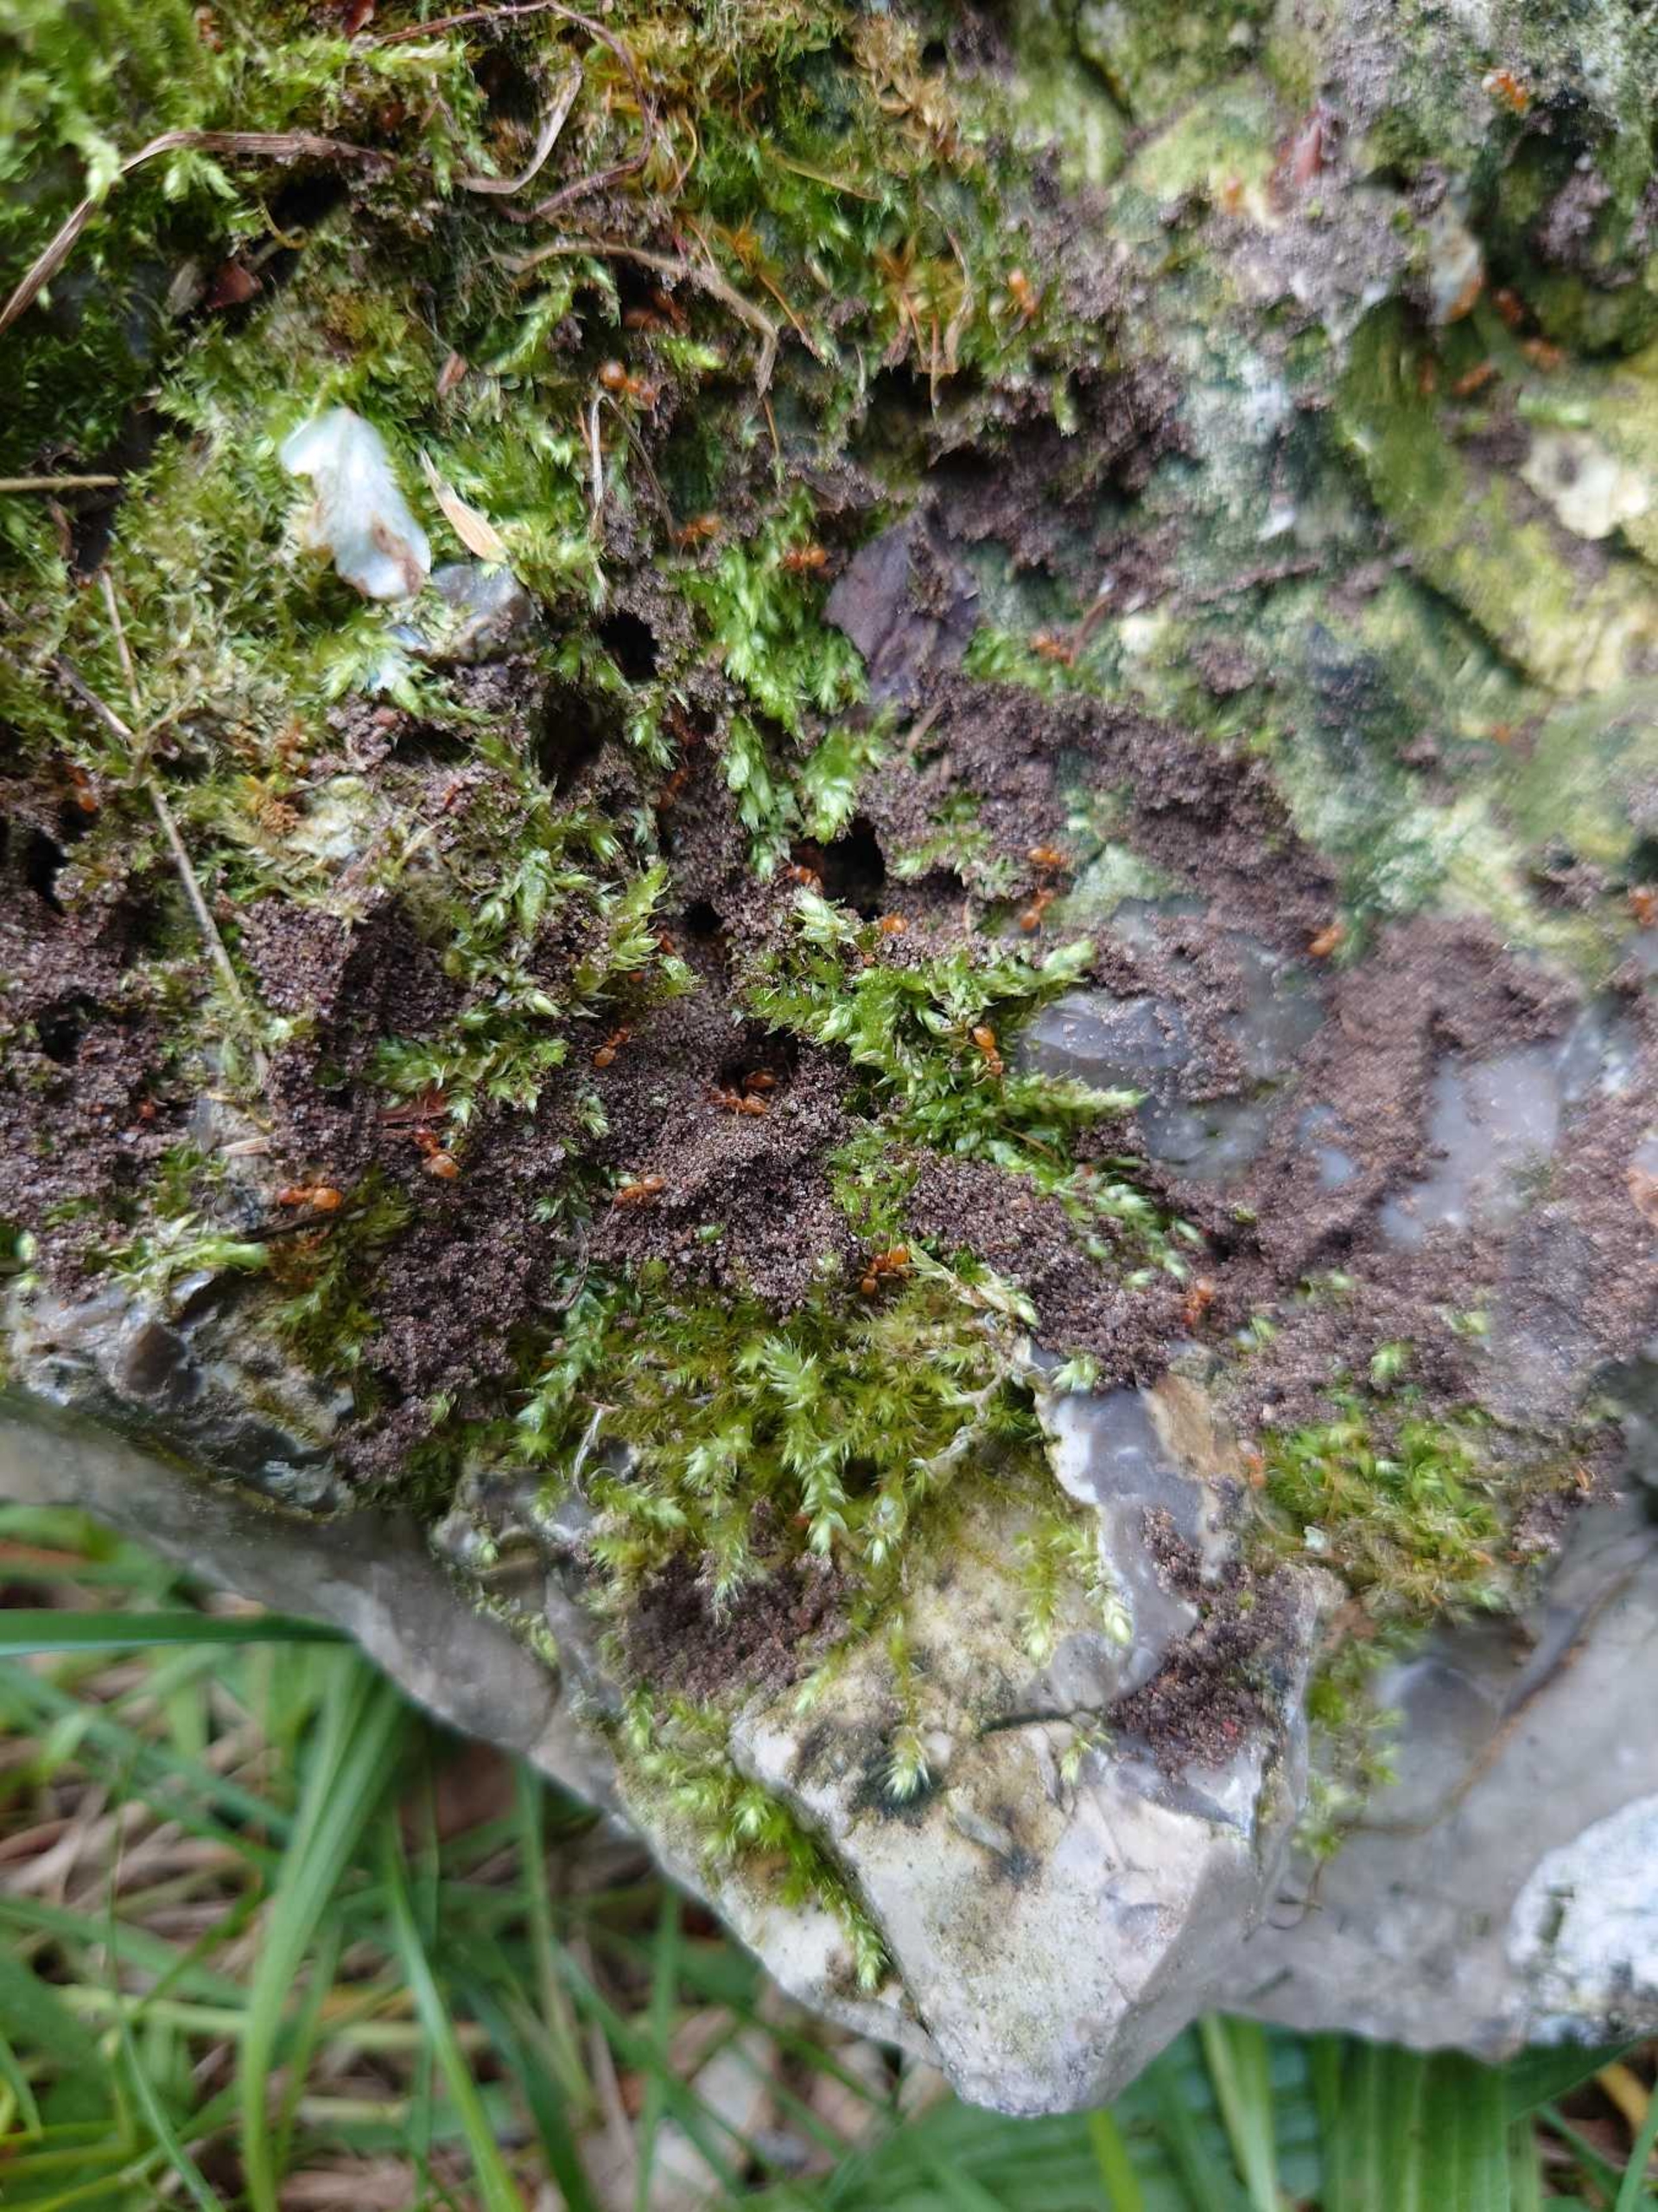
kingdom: Plantae
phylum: Bryophyta
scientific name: Bryophyta
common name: Mosser
